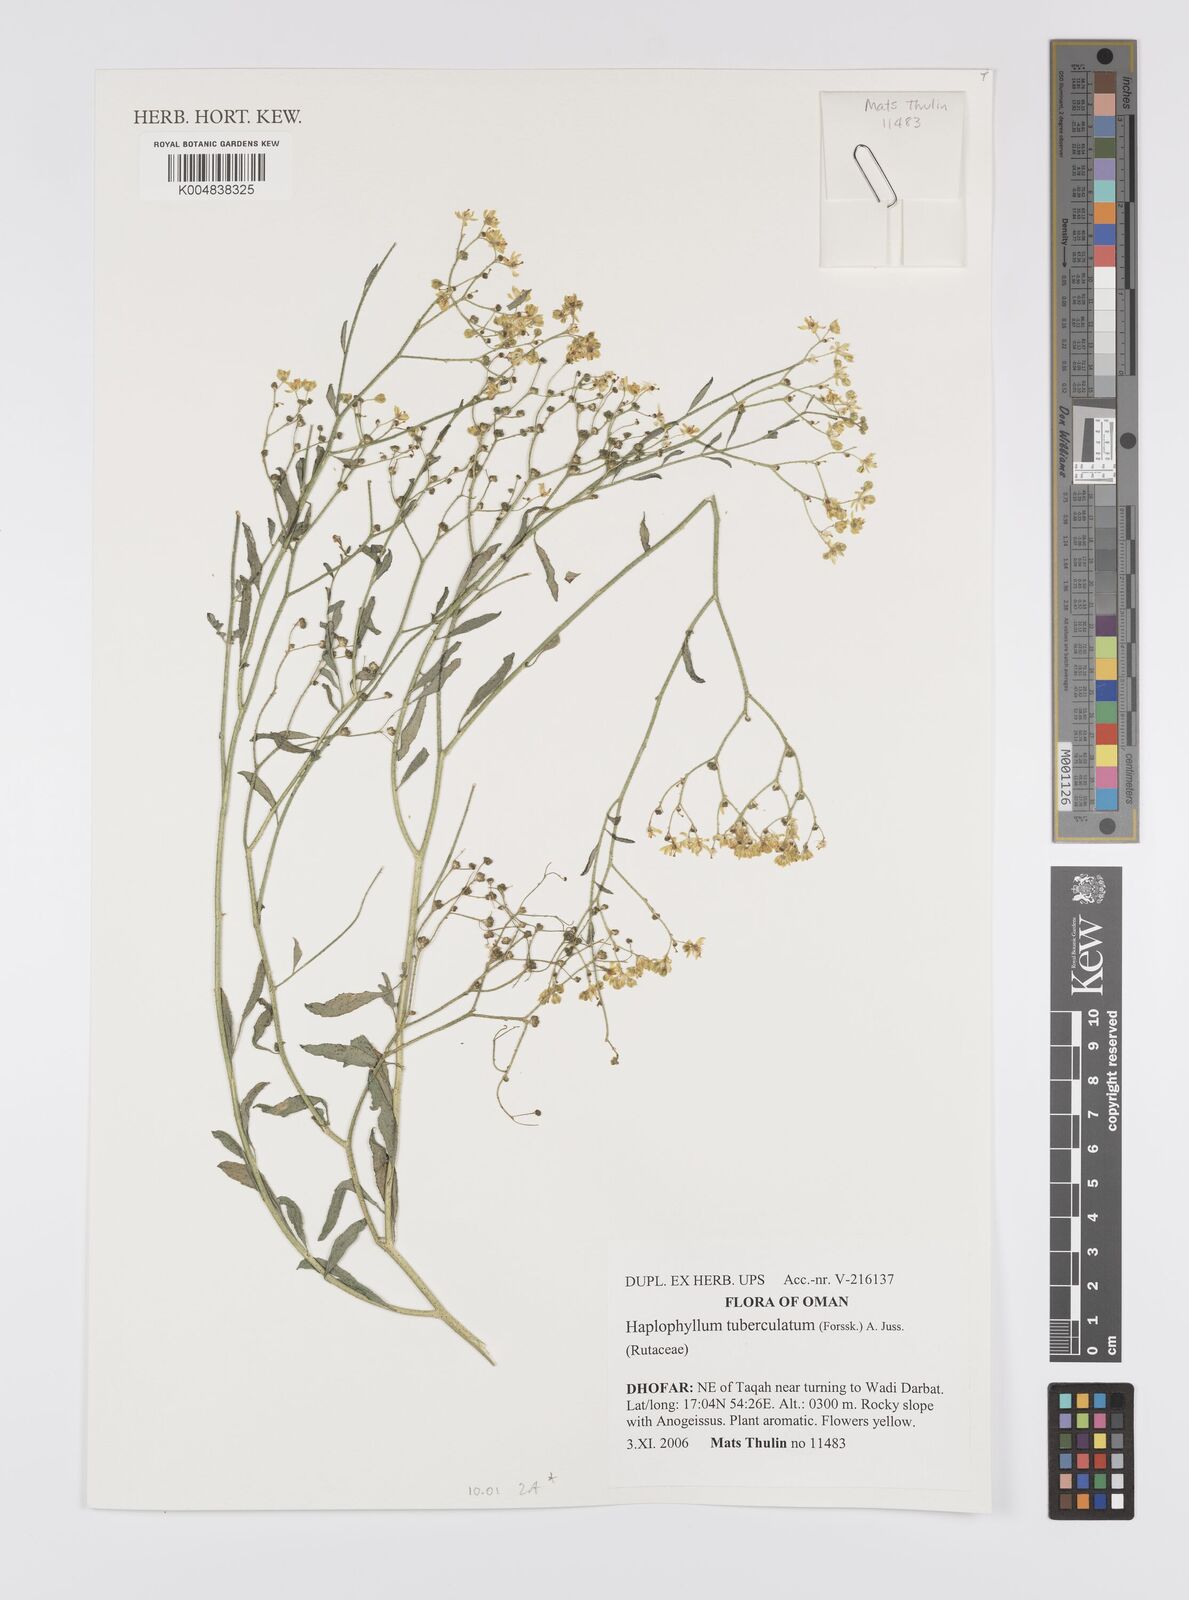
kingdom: Plantae
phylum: Tracheophyta
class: Magnoliopsida
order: Sapindales
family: Rutaceae
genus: Haplophyllum
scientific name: Haplophyllum tuberculatum
